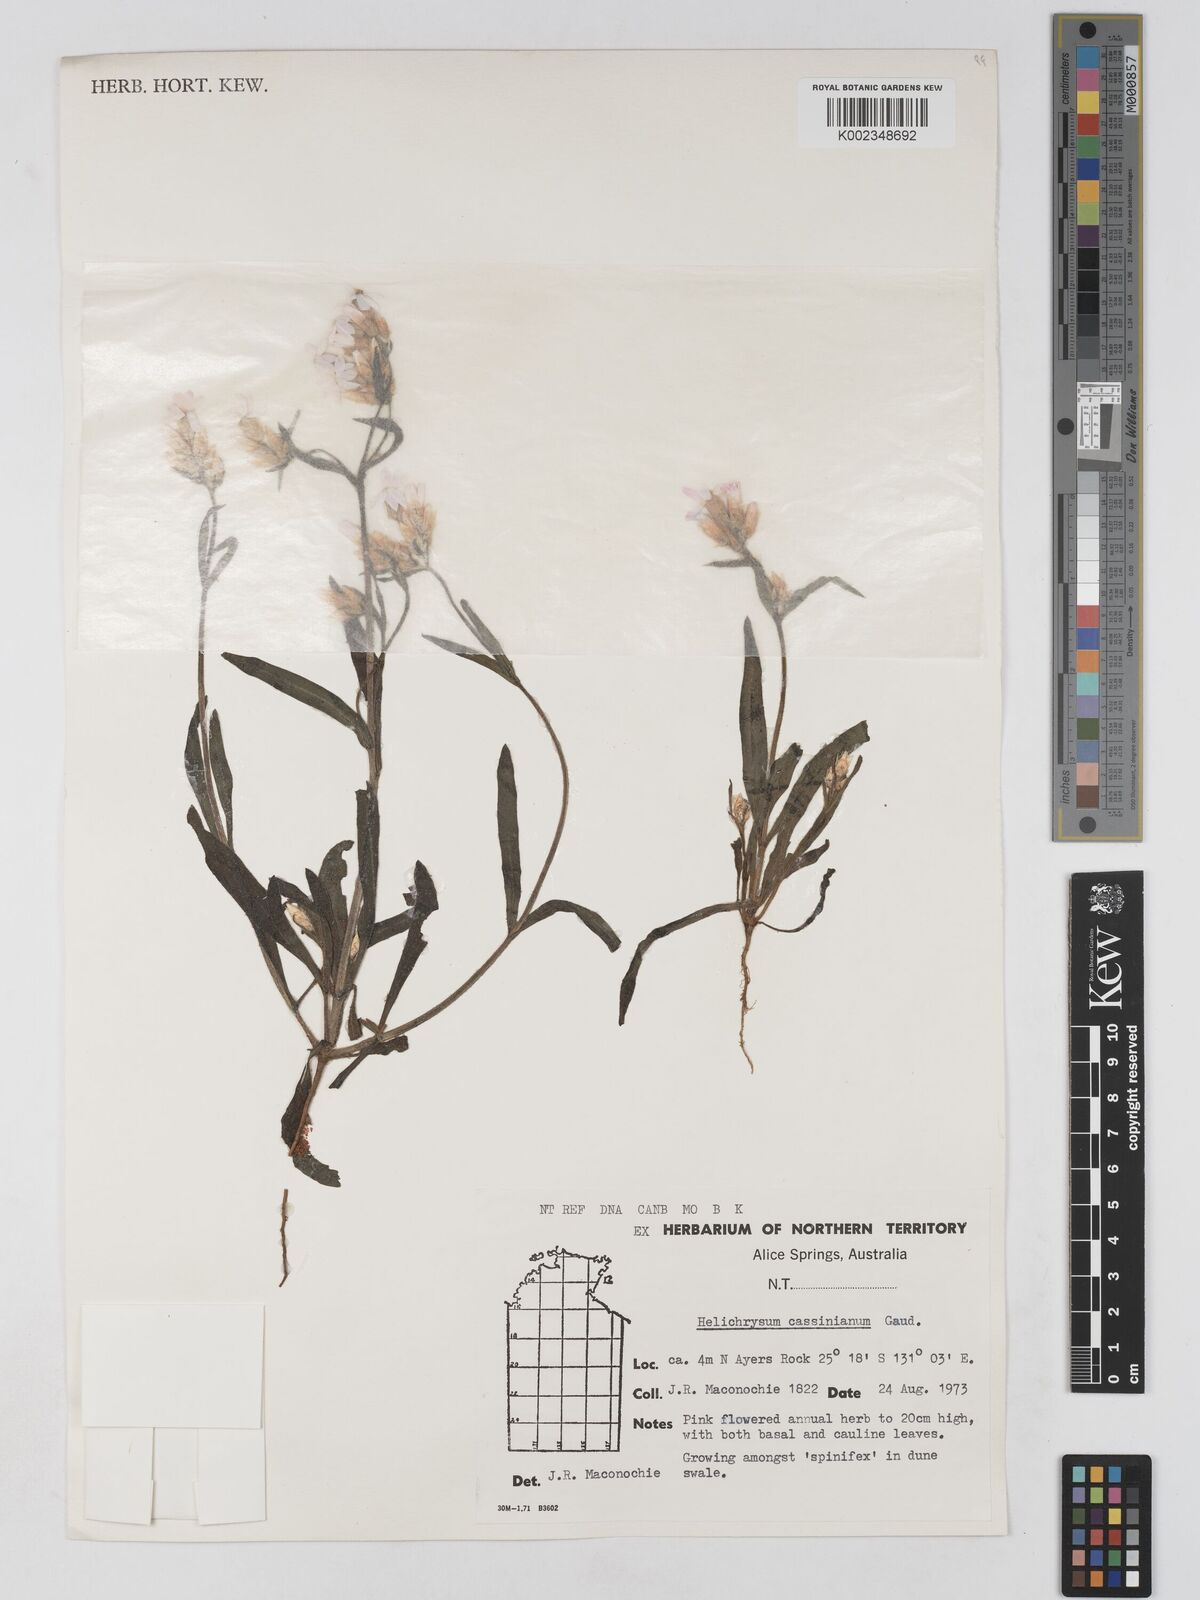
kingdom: Plantae
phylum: Tracheophyta
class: Magnoliopsida
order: Asterales
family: Asteraceae
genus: Schoenia
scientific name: Schoenia cassiniana
